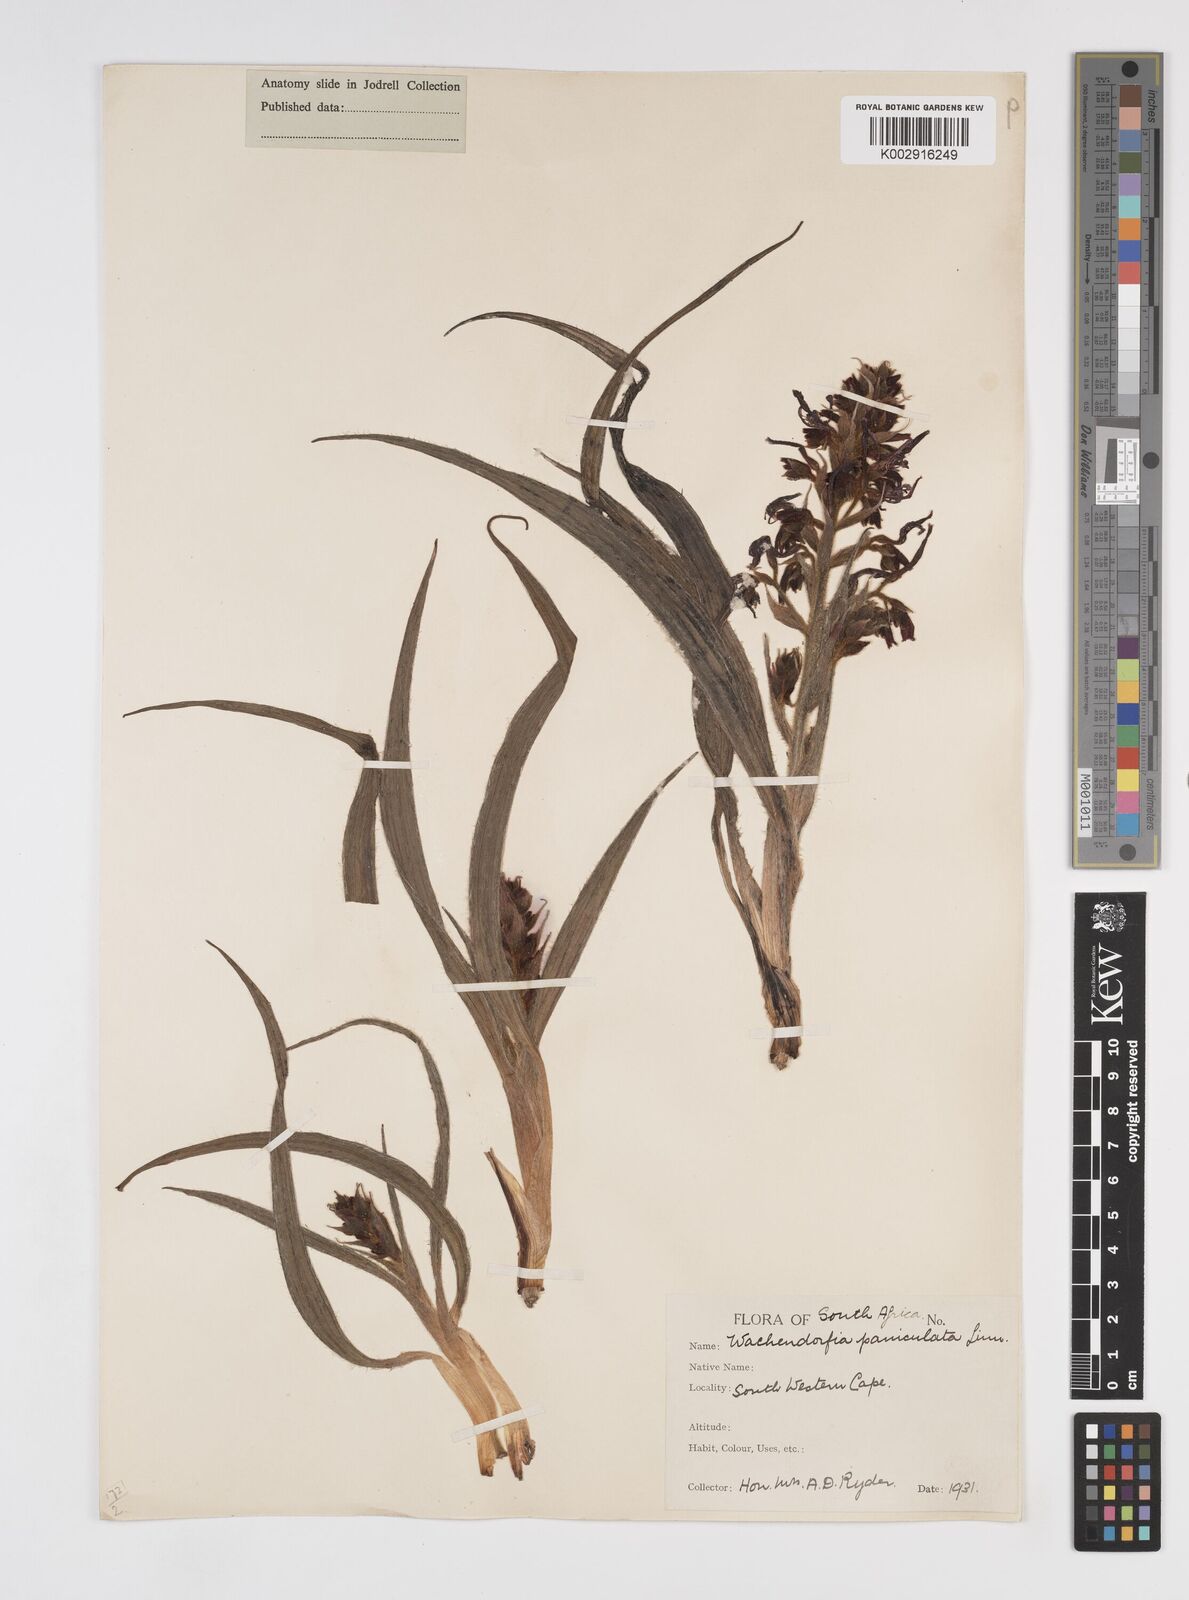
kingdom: Plantae
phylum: Tracheophyta
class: Liliopsida
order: Commelinales
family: Haemodoraceae
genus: Wachendorfia
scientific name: Wachendorfia paniculata
